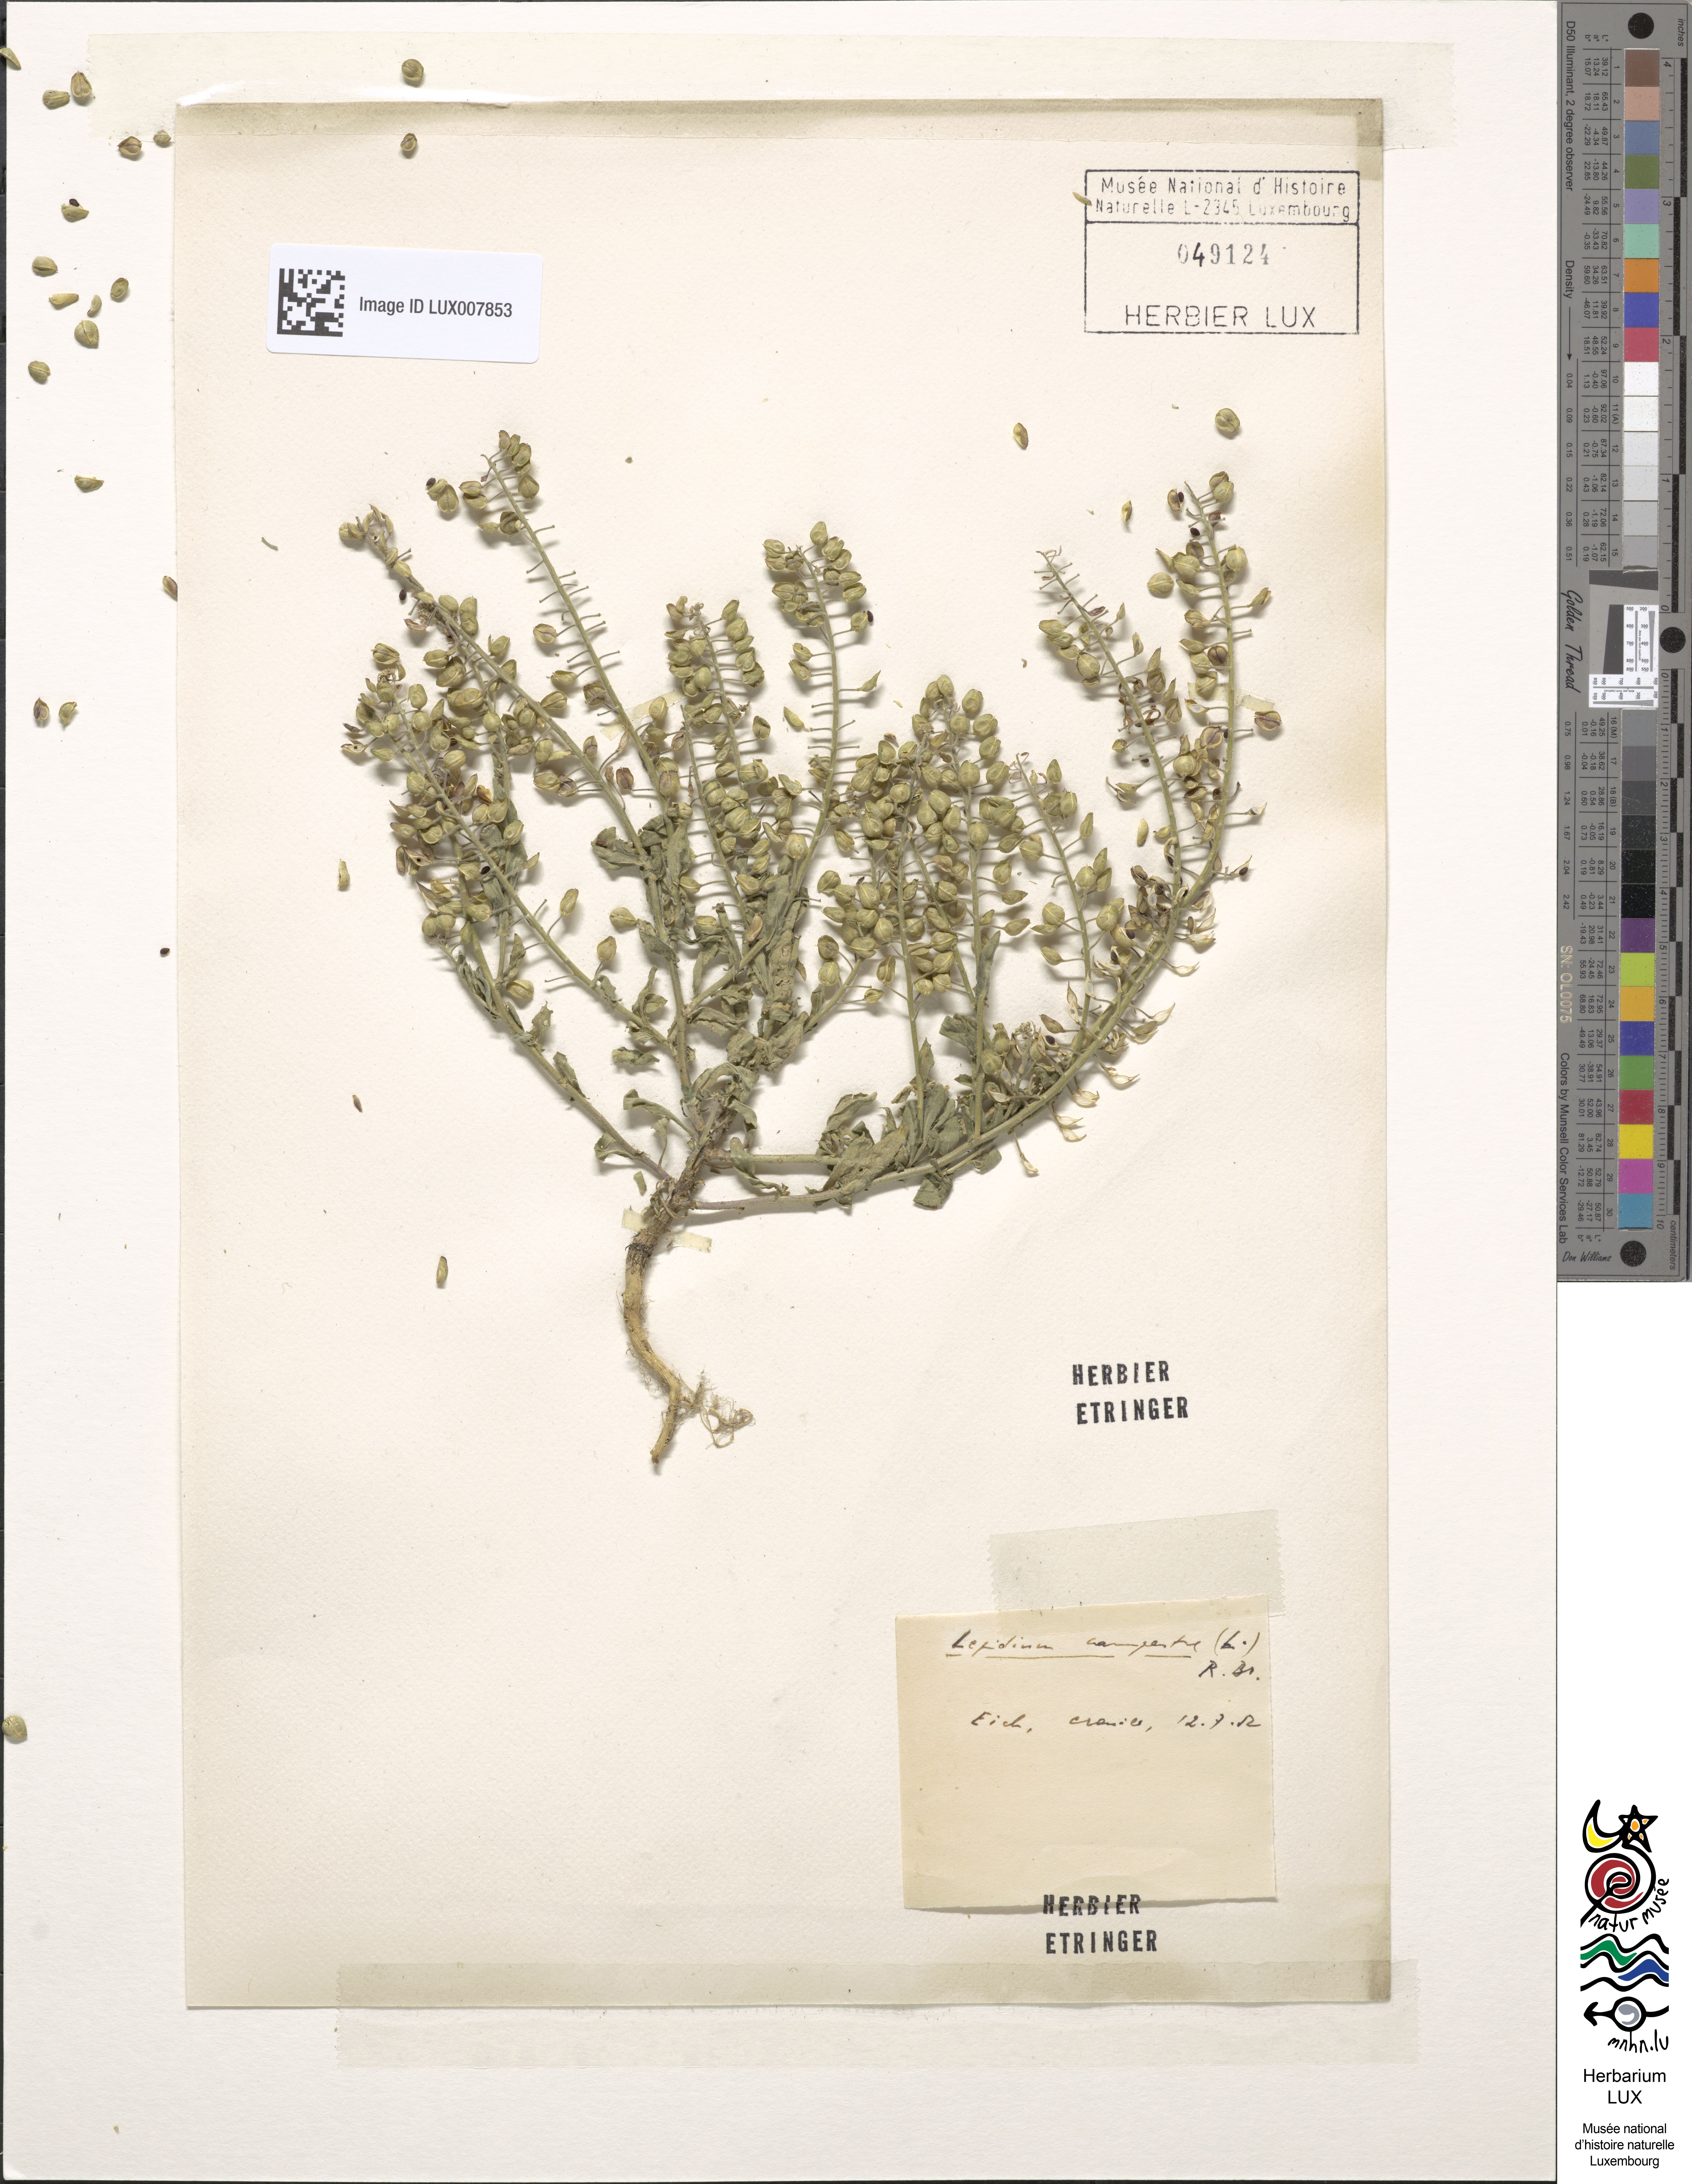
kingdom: Plantae
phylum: Tracheophyta
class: Magnoliopsida
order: Brassicales
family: Brassicaceae
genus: Lepidium
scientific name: Lepidium campestre
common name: Field pepperwort
